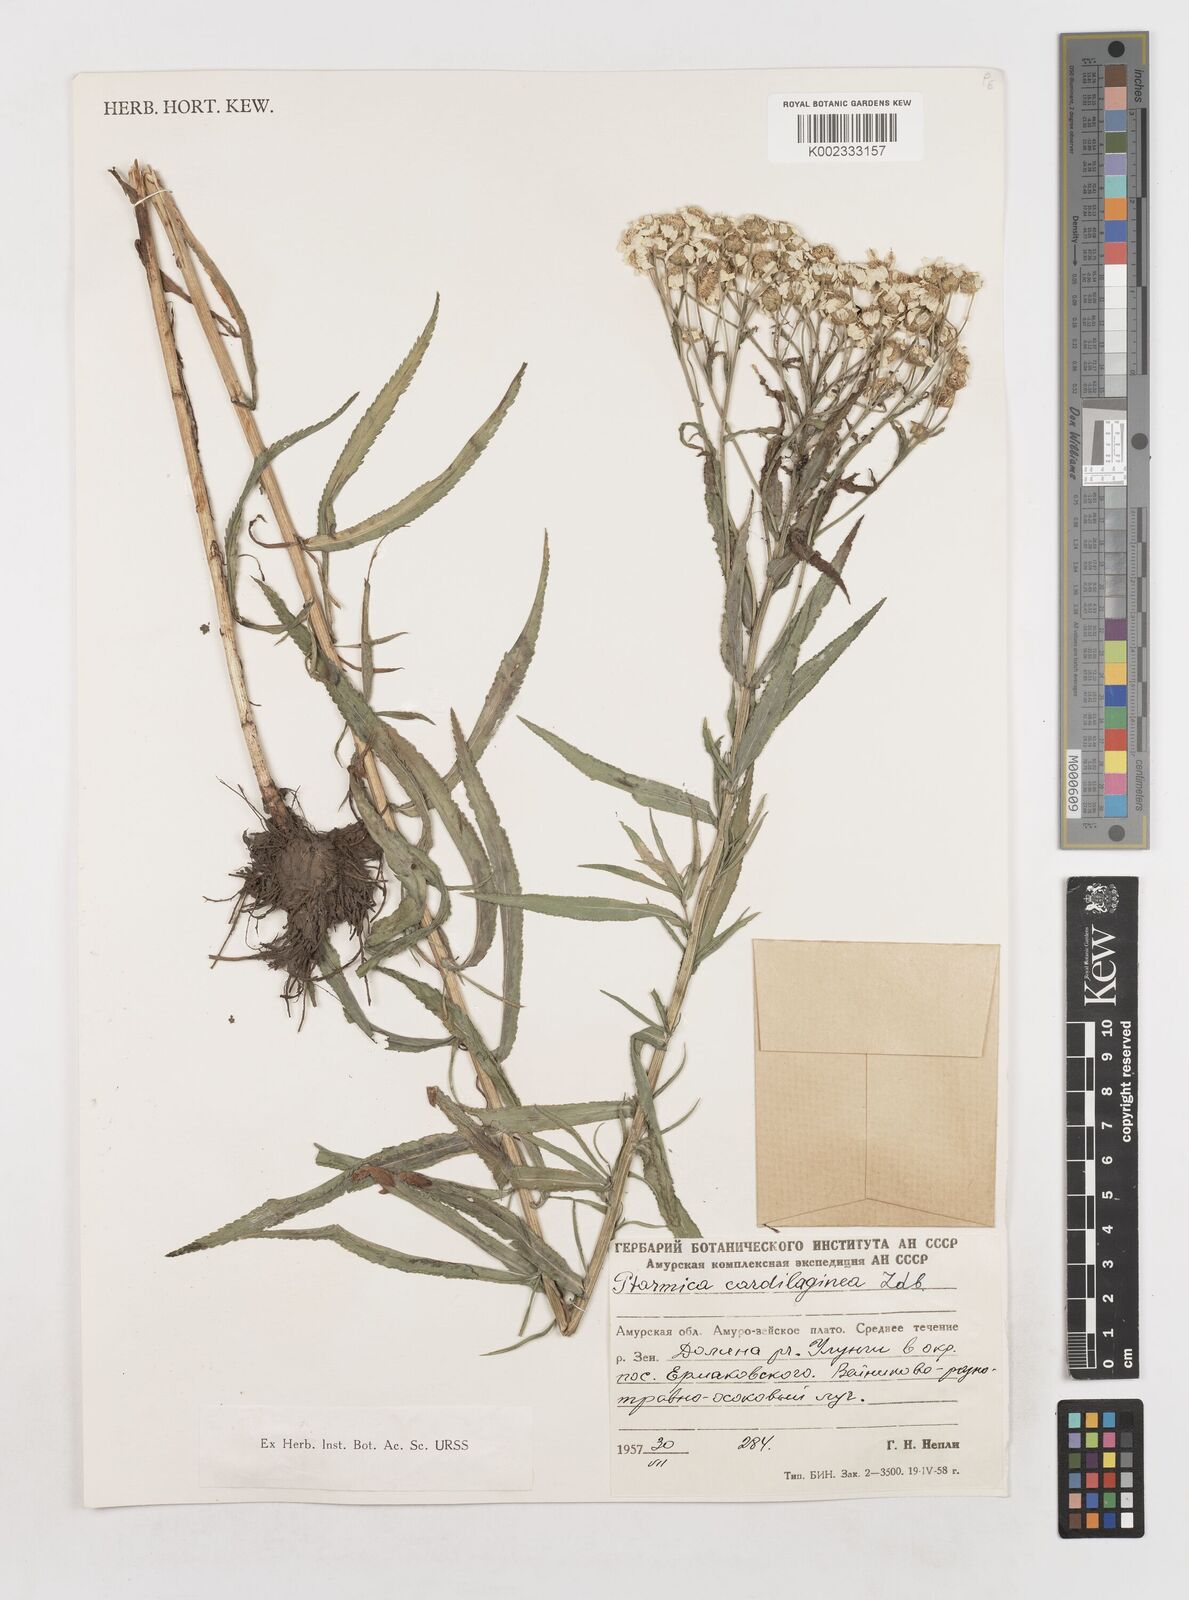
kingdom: Plantae
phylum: Tracheophyta
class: Magnoliopsida
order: Asterales
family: Asteraceae
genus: Achillea
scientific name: Achillea salicifolia
